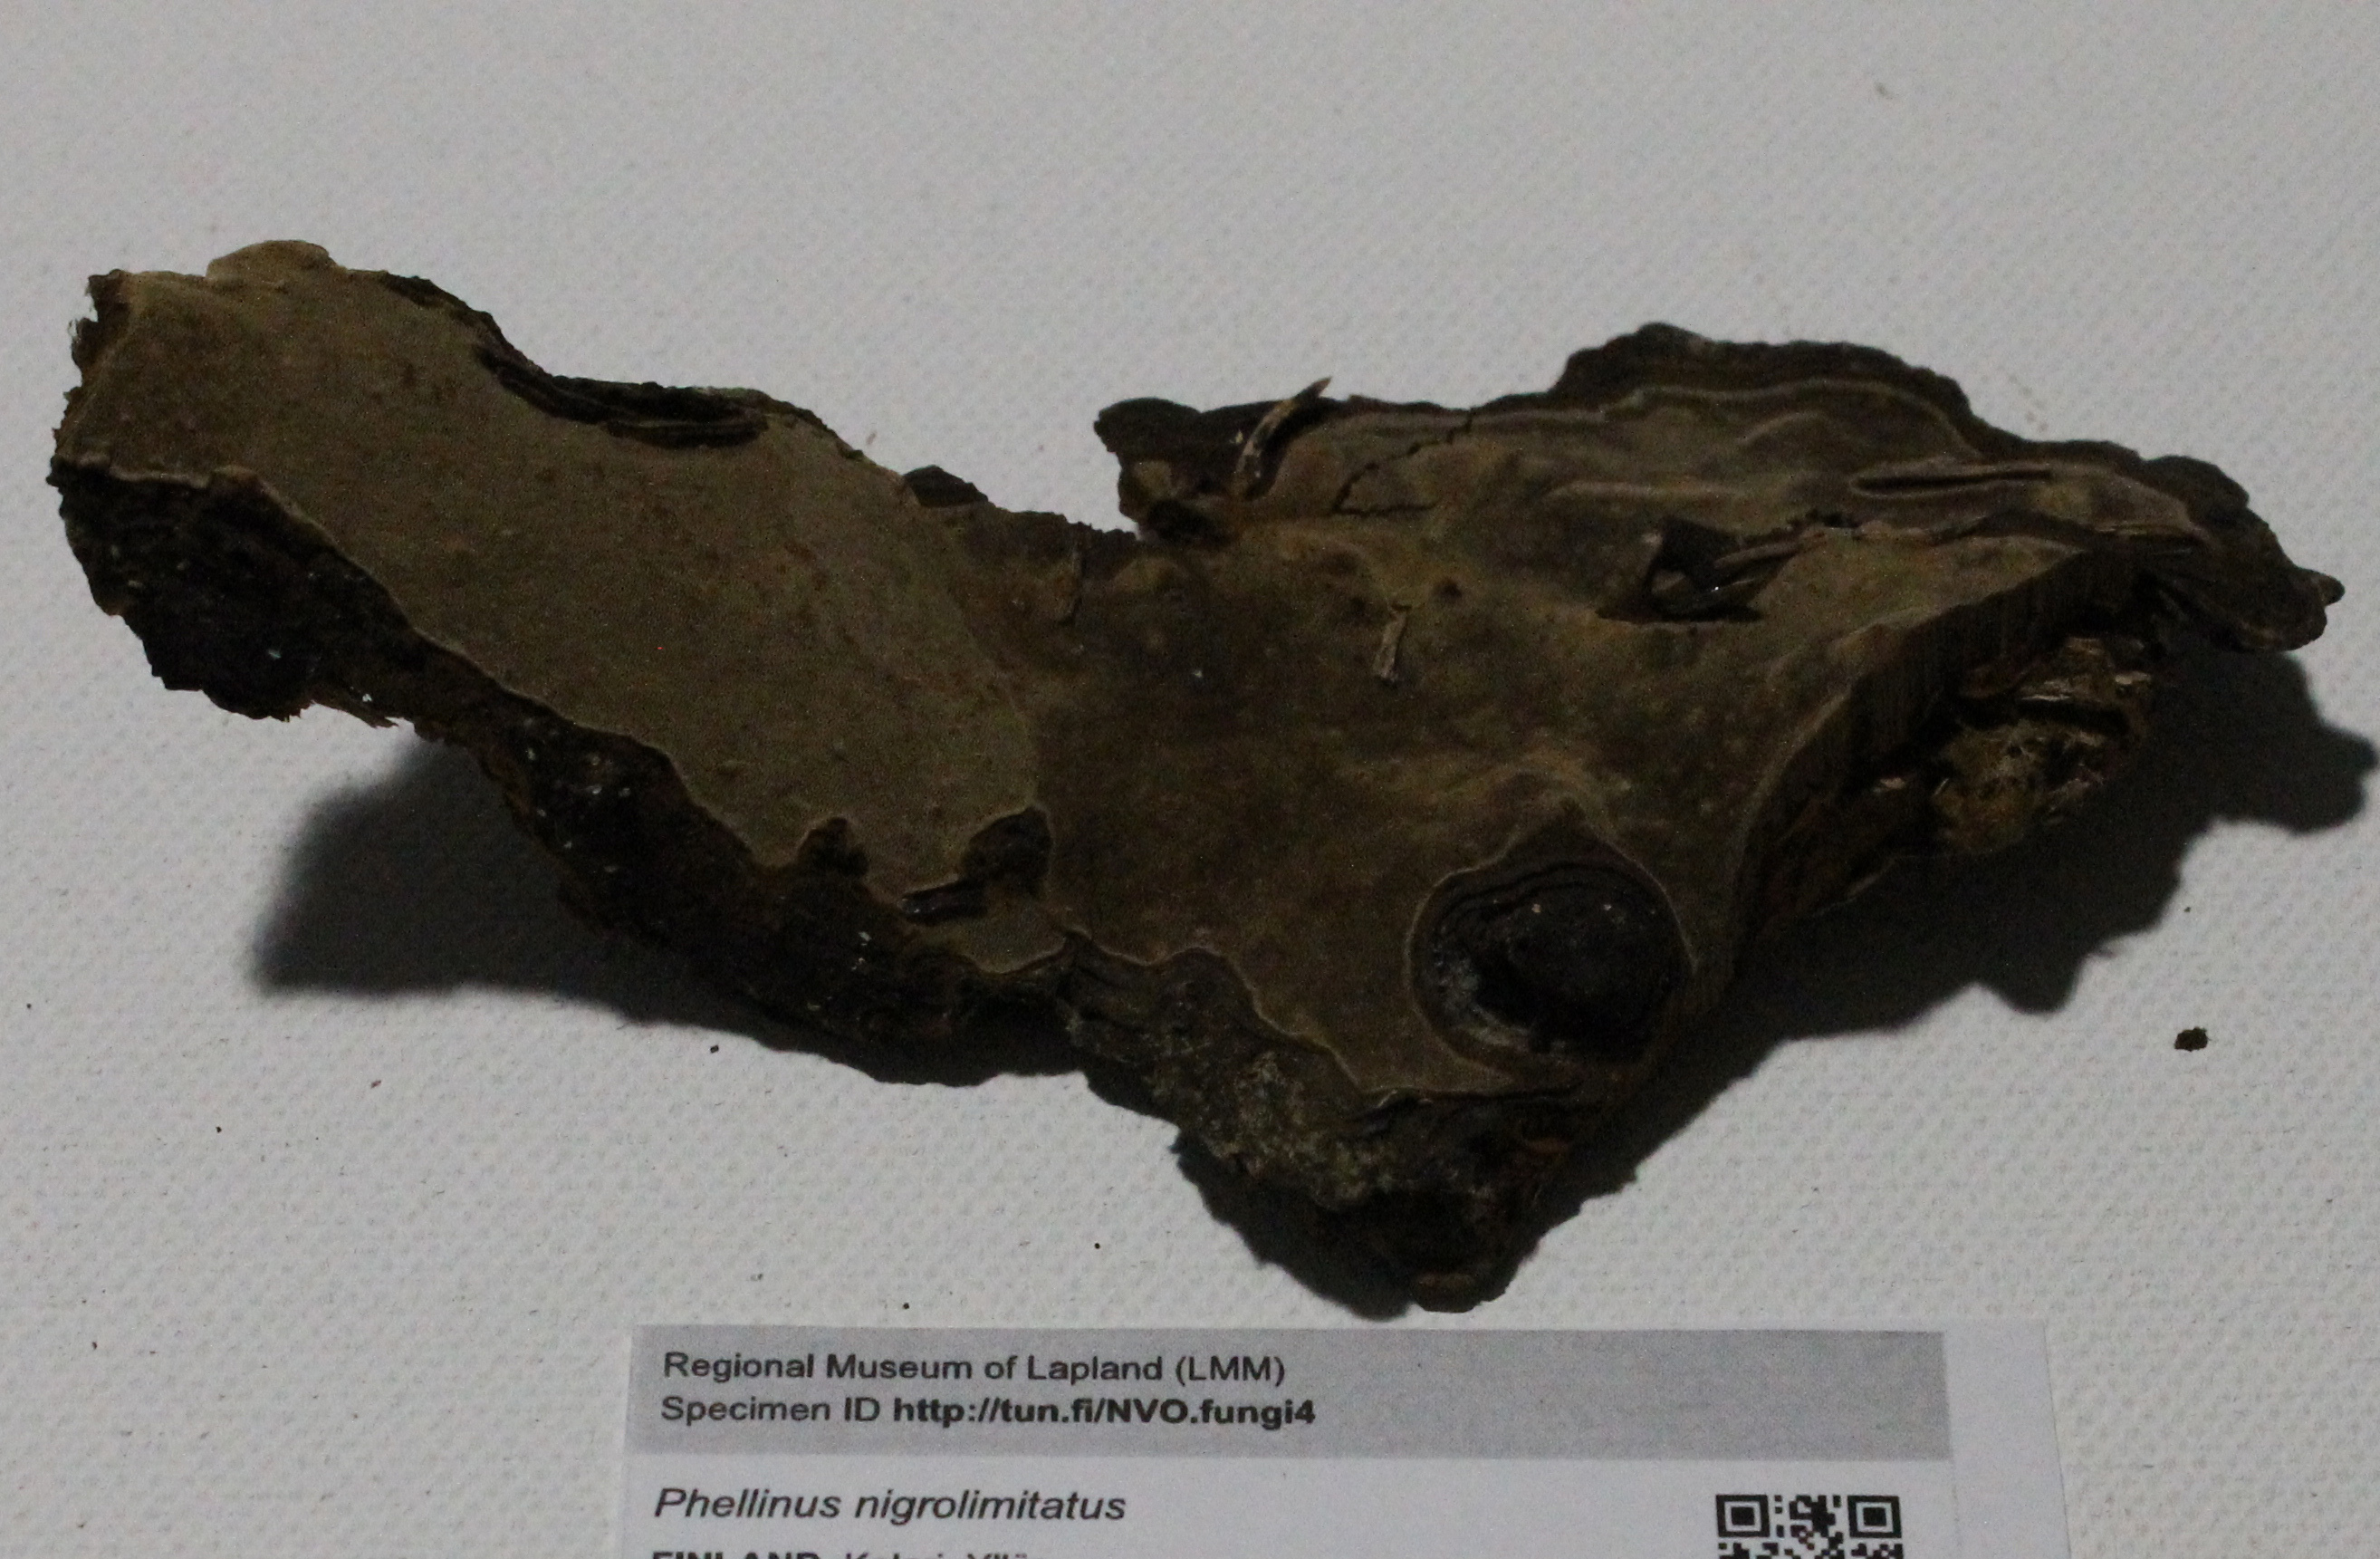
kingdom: Fungi
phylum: Basidiomycota
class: Agaricomycetes
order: Hymenochaetales
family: Hymenochaetaceae
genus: Phellopilus
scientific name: Phellopilus nigrolimitatus
